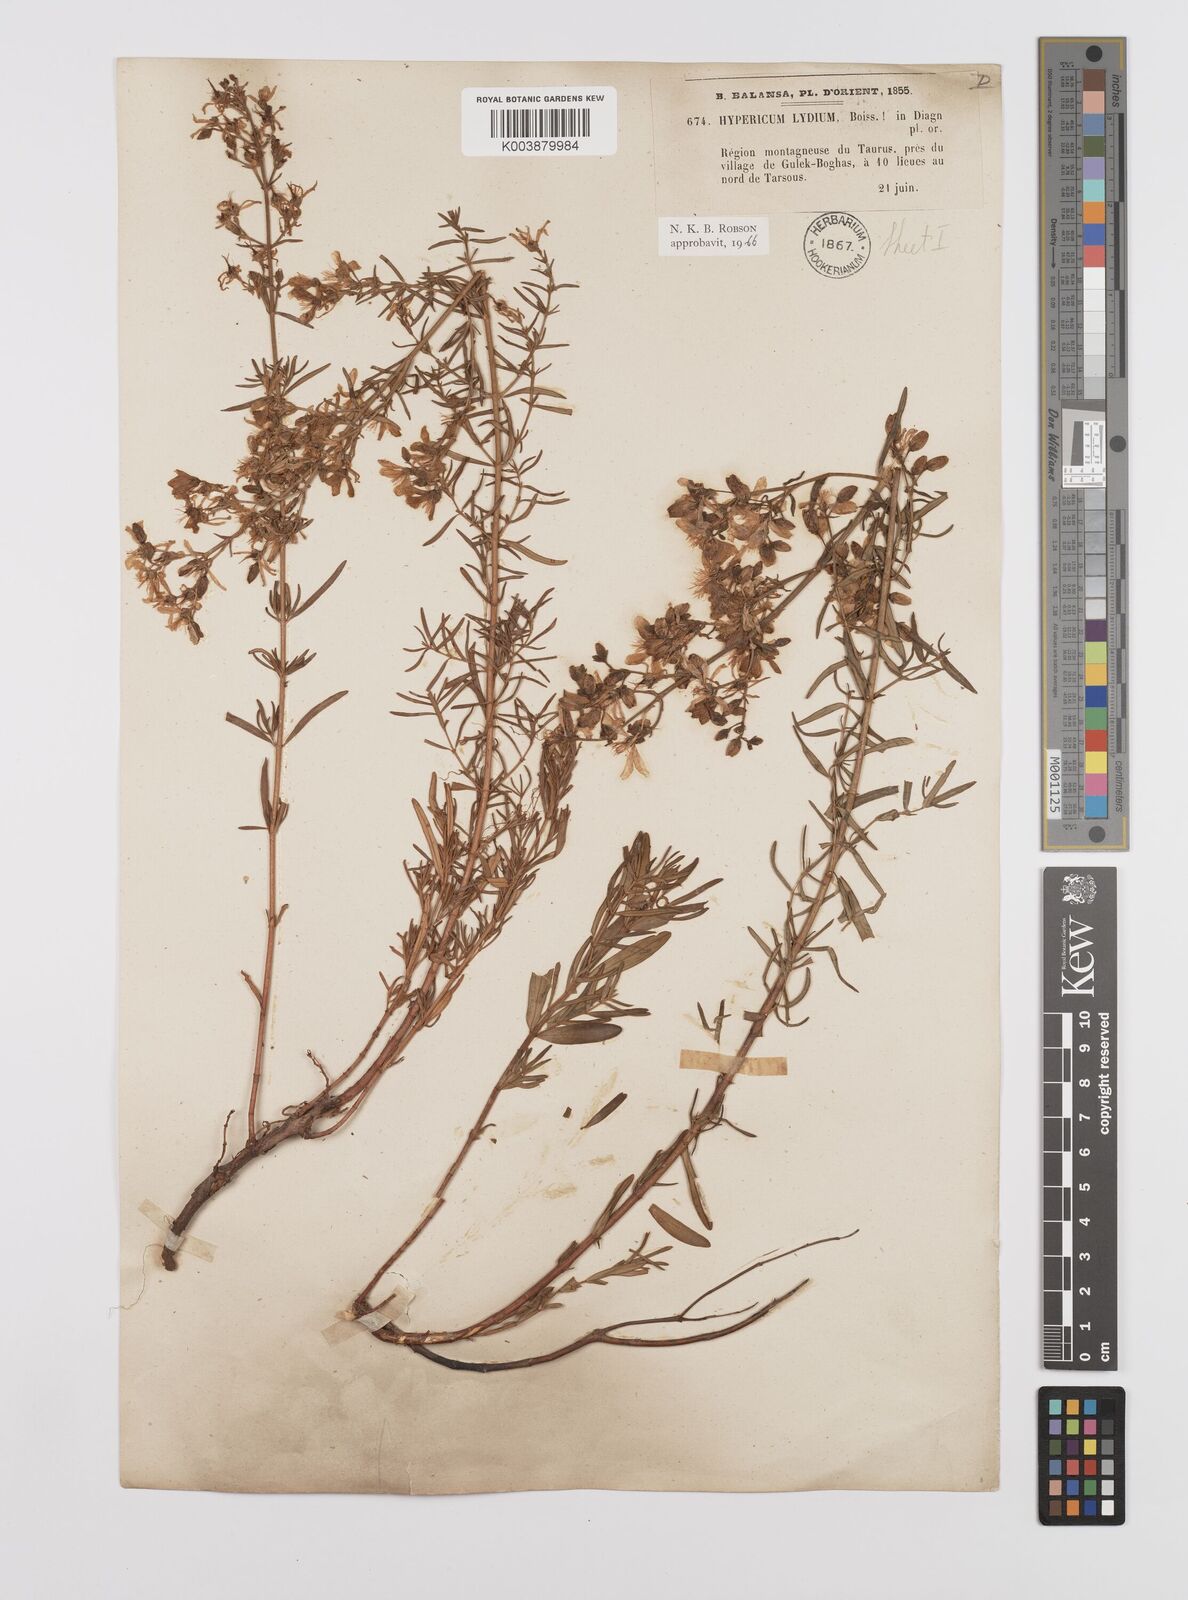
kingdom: Plantae
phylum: Tracheophyta
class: Magnoliopsida
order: Malpighiales
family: Hypericaceae
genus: Hypericum
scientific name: Hypericum lydium
